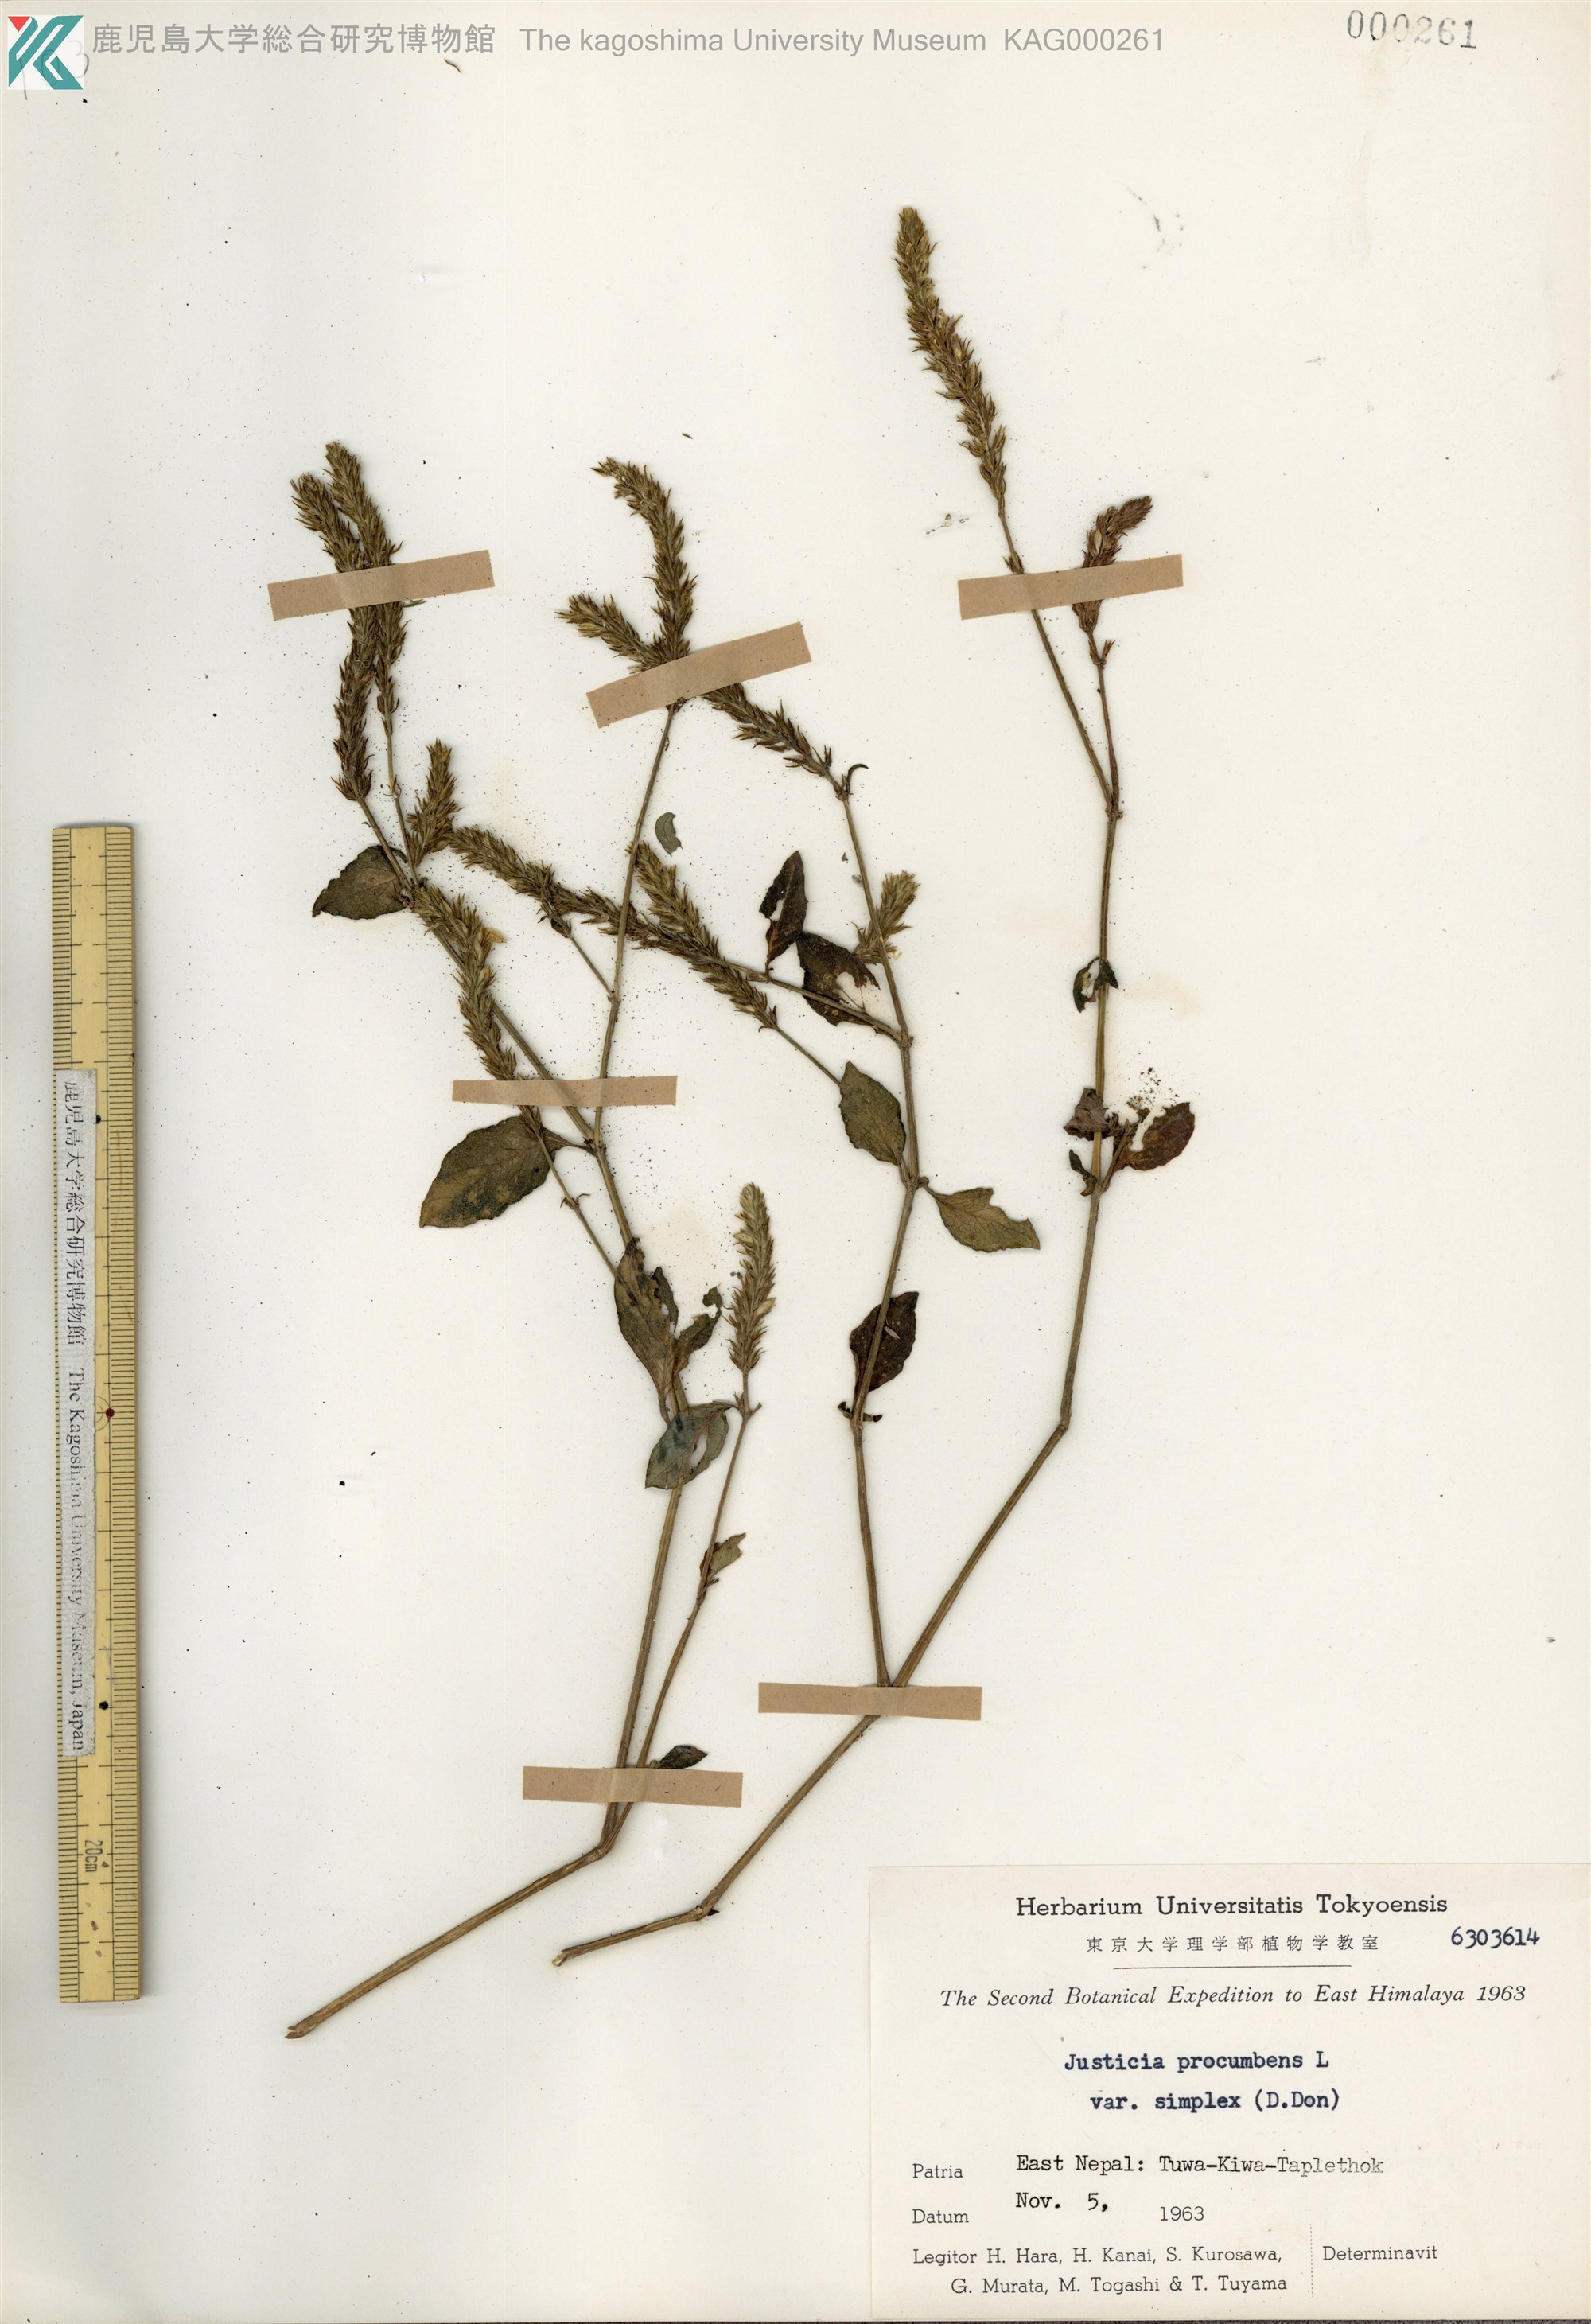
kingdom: Plantae
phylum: Tracheophyta
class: Magnoliopsida
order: Lamiales
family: Acanthaceae
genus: Rostellularia
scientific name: Rostellularia mollissima
